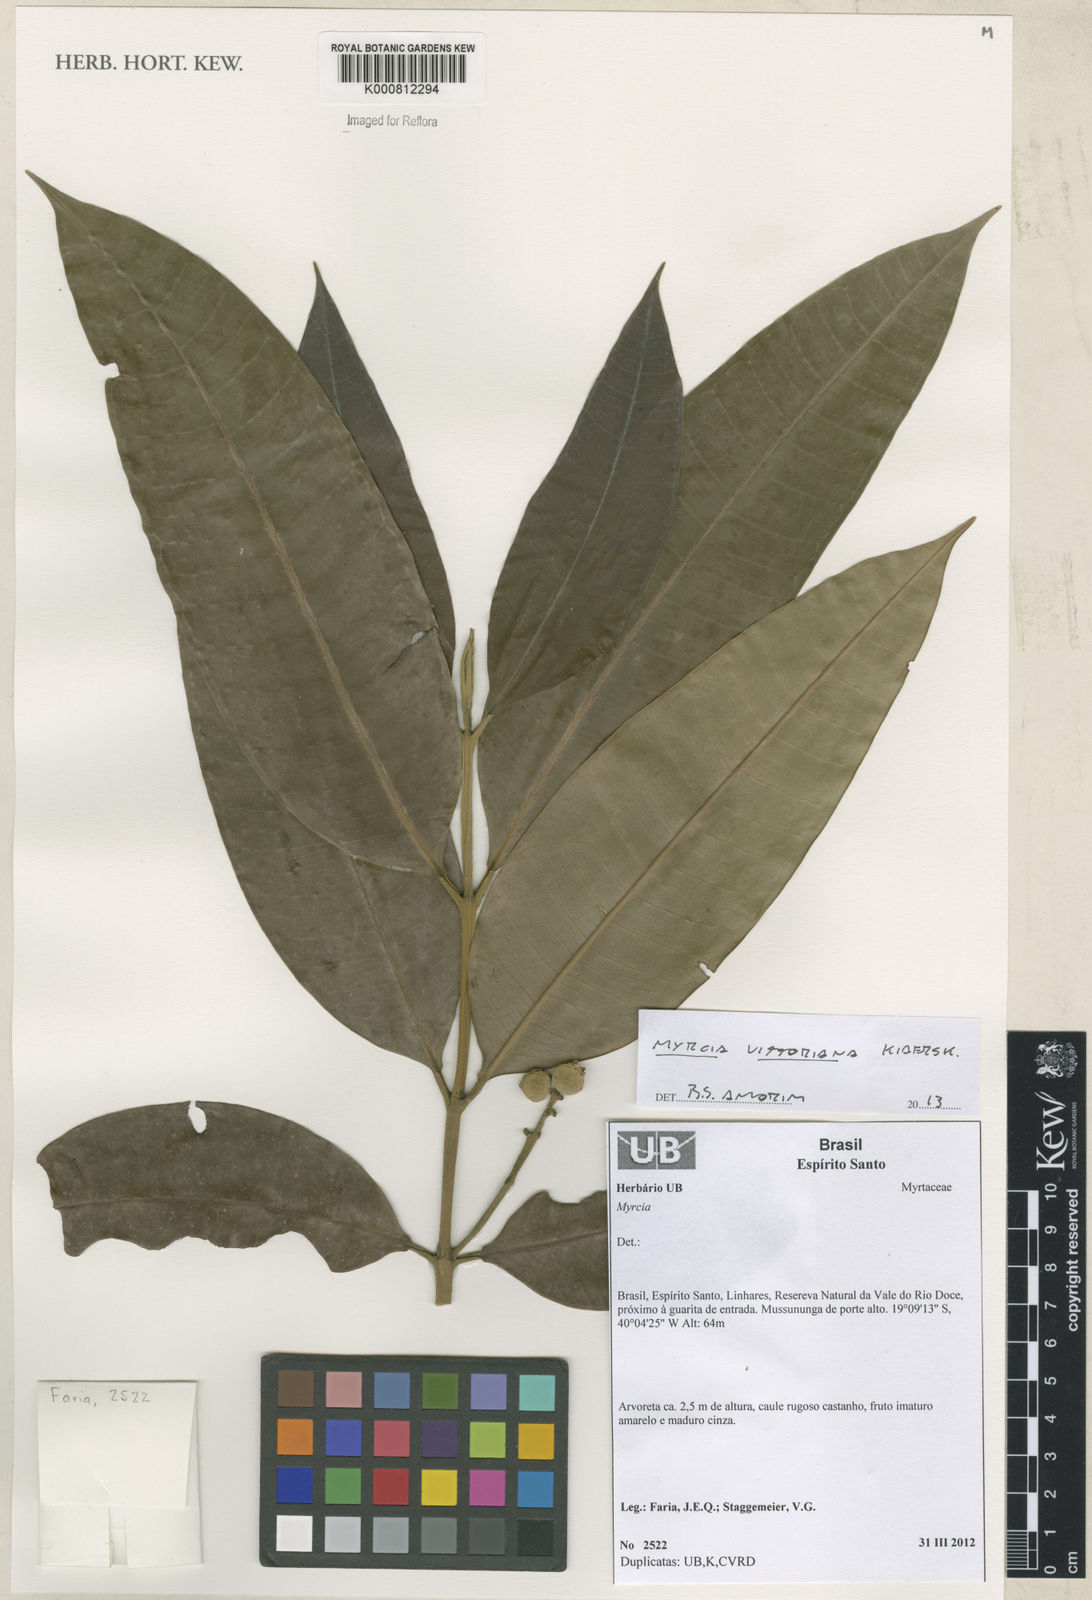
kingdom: Plantae
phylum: Tracheophyta
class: Magnoliopsida
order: Myrtales
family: Myrtaceae
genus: Myrcia
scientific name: Myrcia vittoriana
